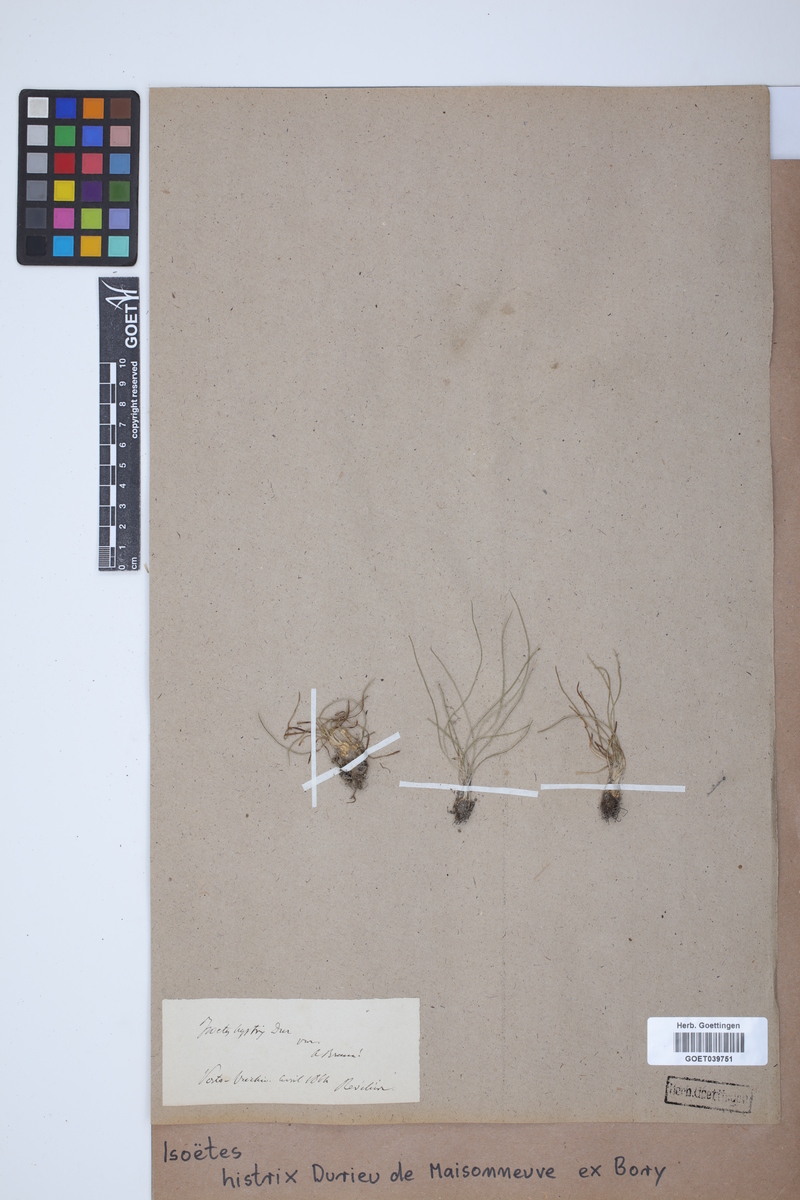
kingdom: Plantae
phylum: Tracheophyta
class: Lycopodiopsida
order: Isoetales
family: Isoetaceae
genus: Isoetes
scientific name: Isoetes histrix
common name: Land quillwort
